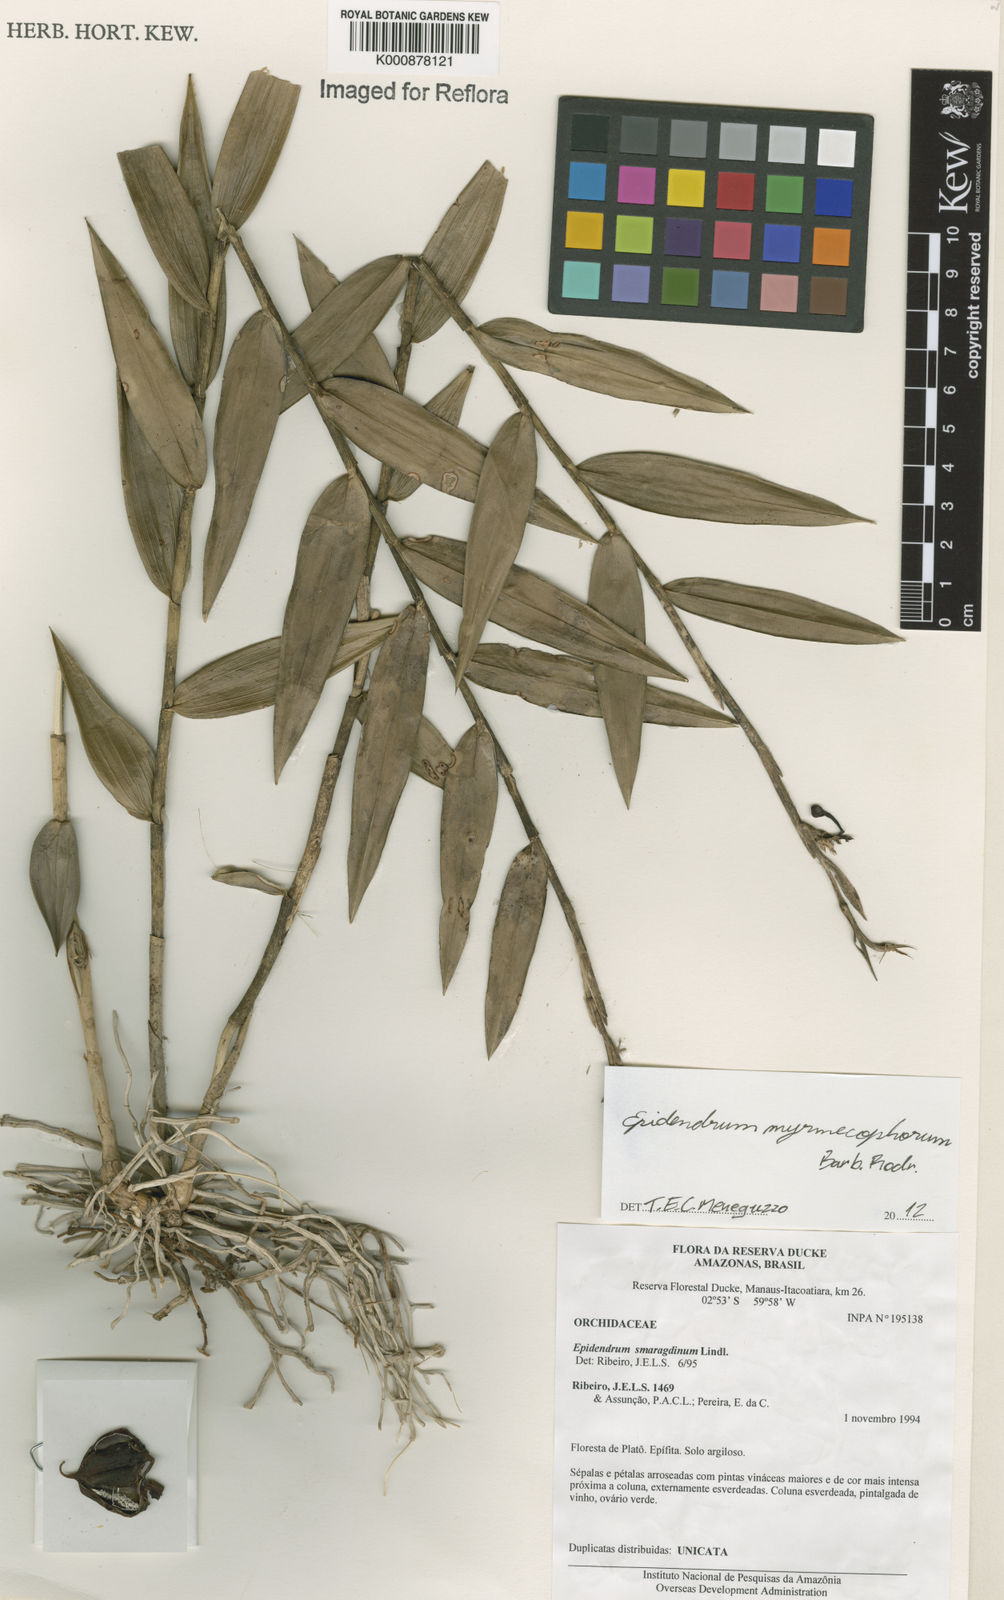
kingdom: Plantae
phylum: Tracheophyta
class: Liliopsida
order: Asparagales
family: Orchidaceae
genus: Epidendrum
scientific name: Epidendrum myrmecophorum
